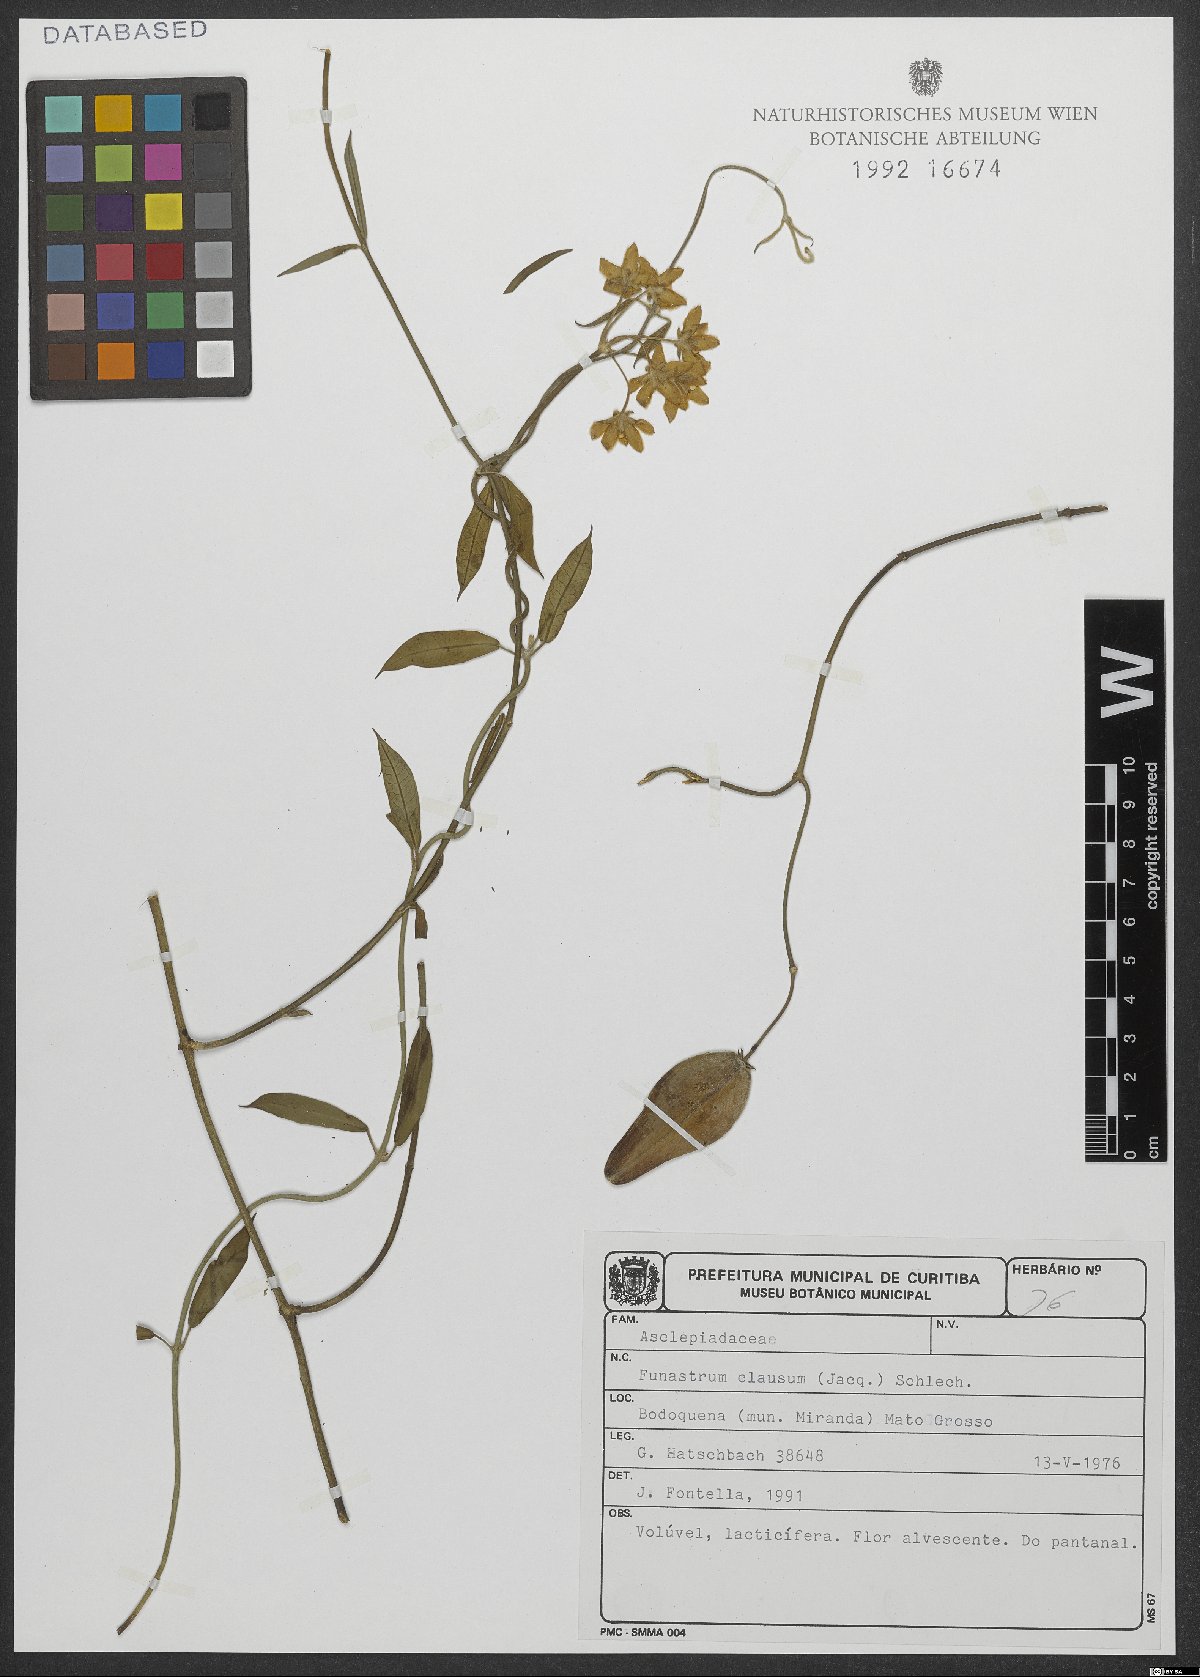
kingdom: Plantae
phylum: Tracheophyta
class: Magnoliopsida
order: Gentianales
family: Apocynaceae
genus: Funastrum
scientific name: Funastrum clausum
